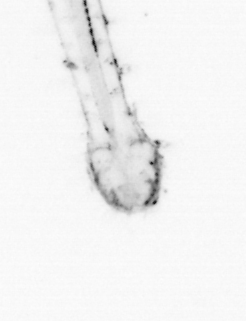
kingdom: Animalia
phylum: Chaetognatha
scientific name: Chaetognatha
